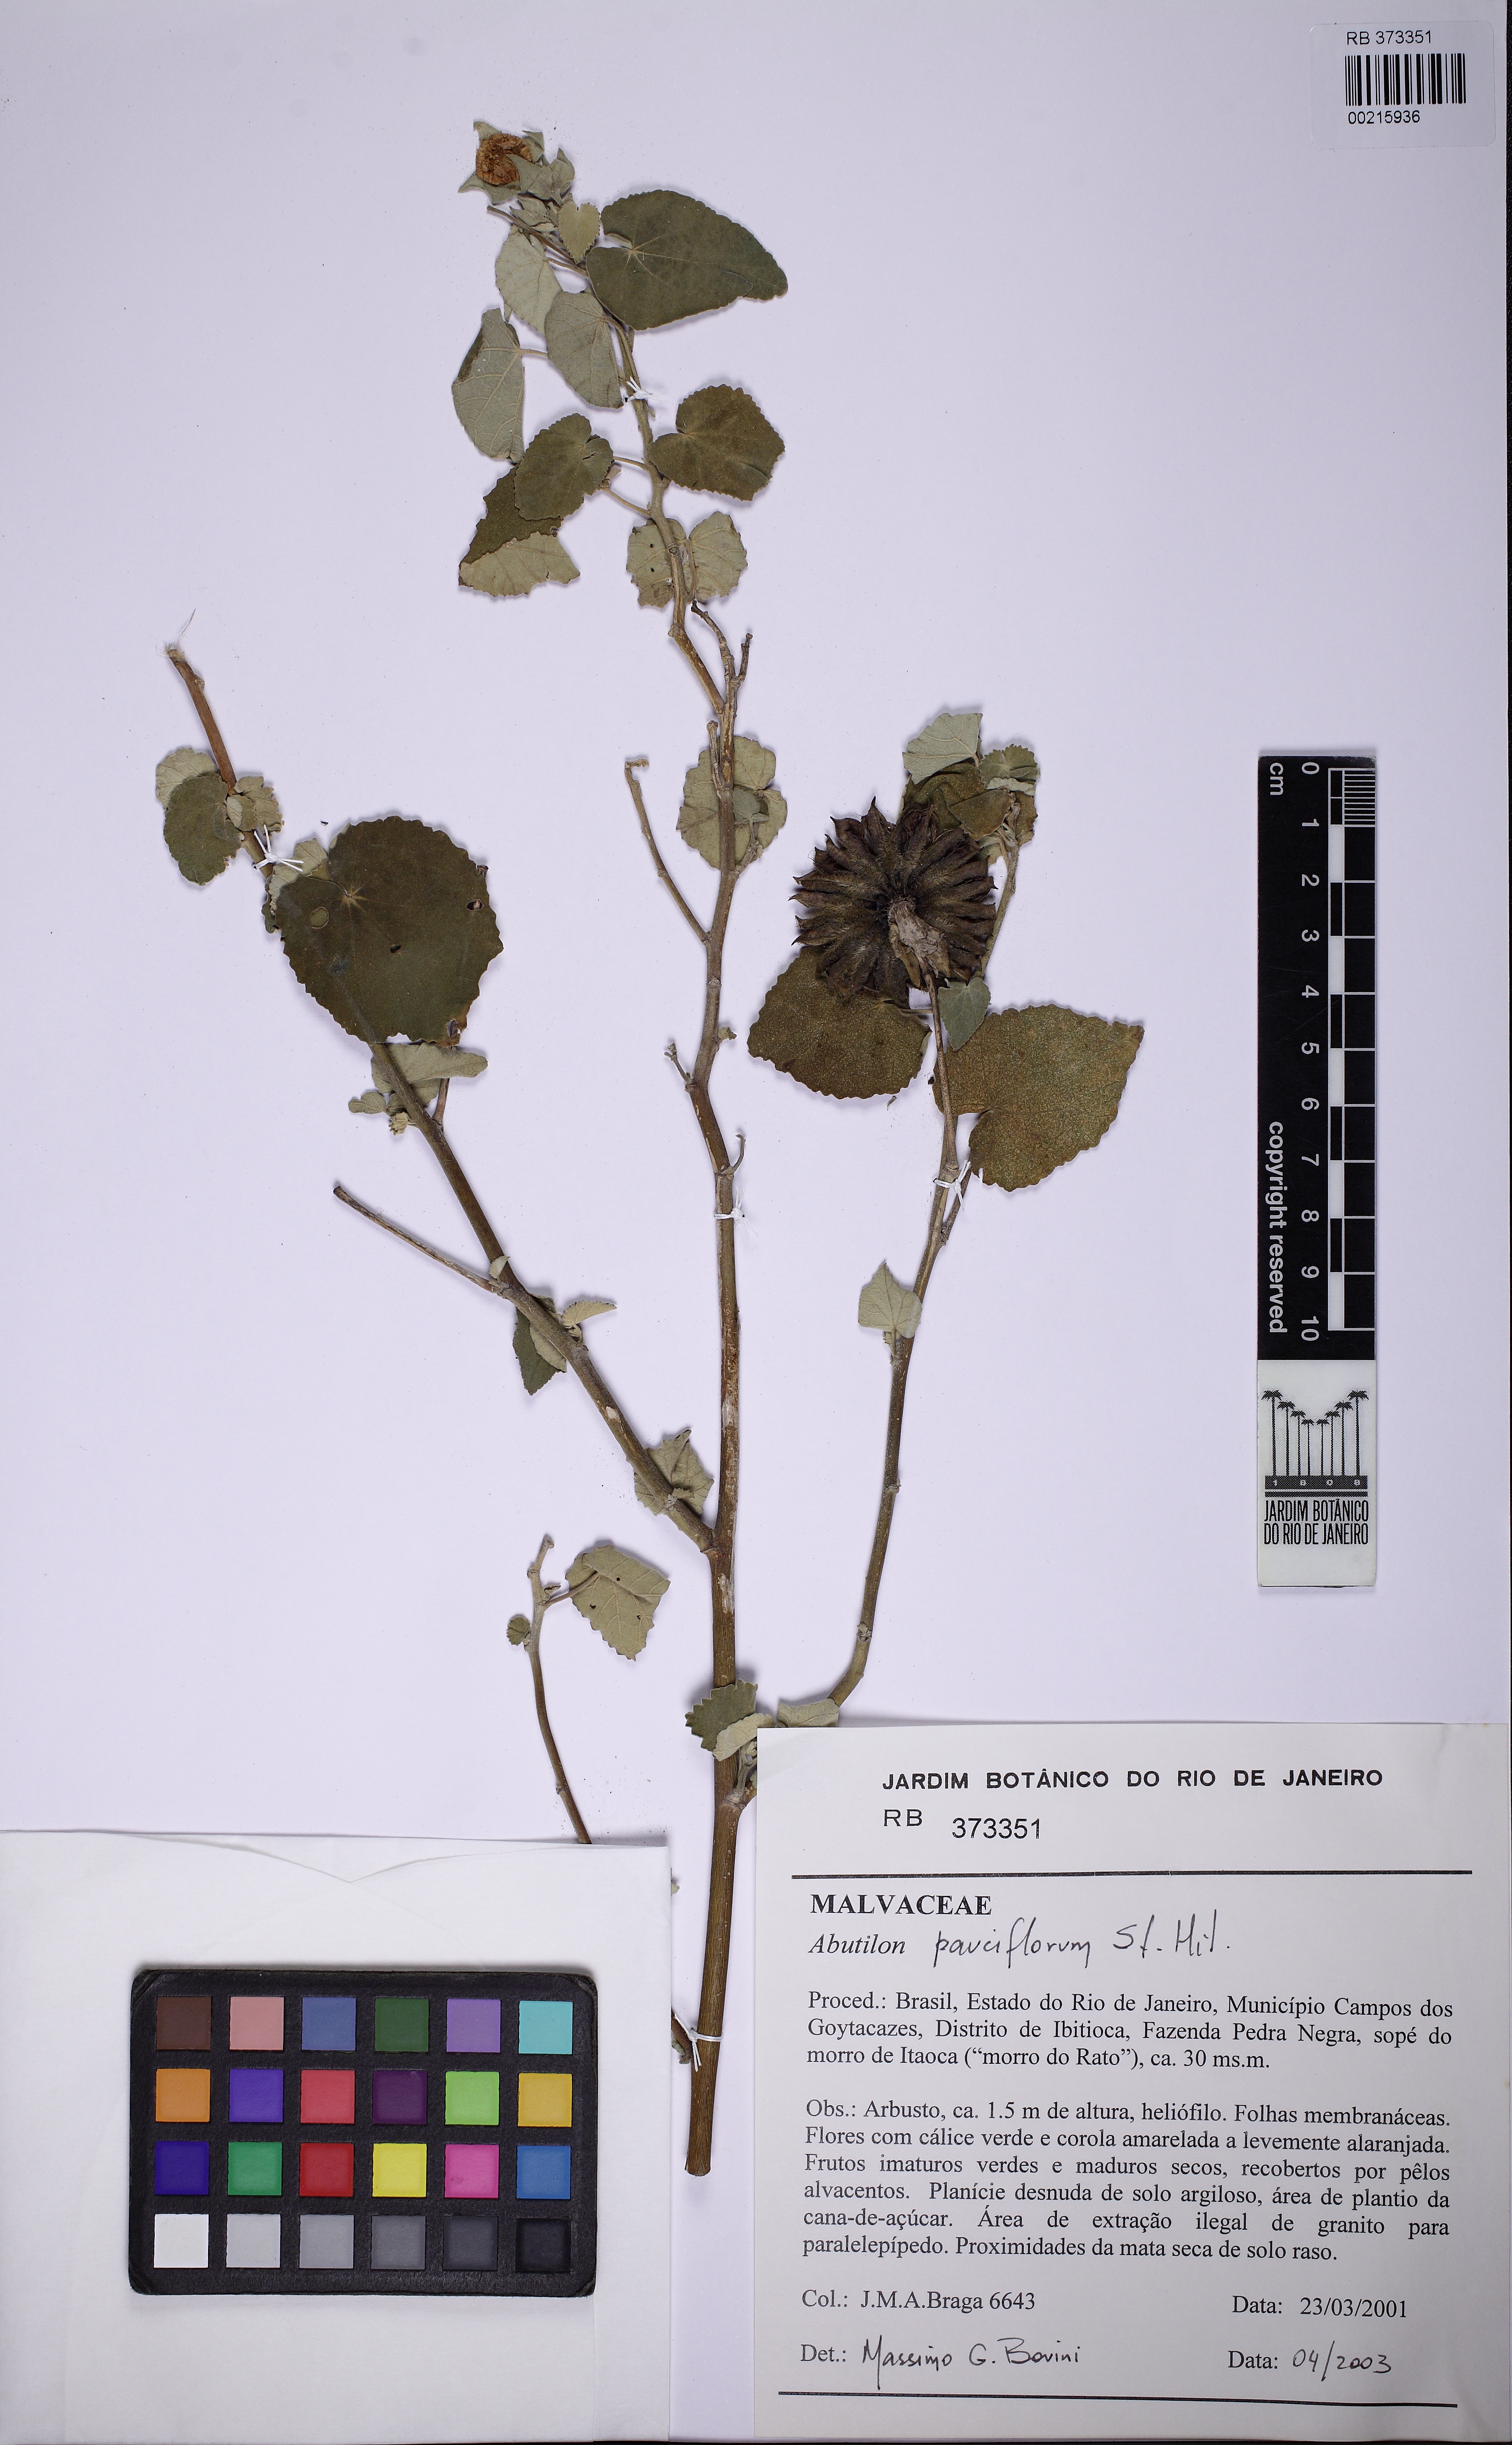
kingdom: Plantae
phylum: Tracheophyta
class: Magnoliopsida
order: Malvales
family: Malvaceae
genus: Callianthe
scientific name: Callianthe pauciflora
